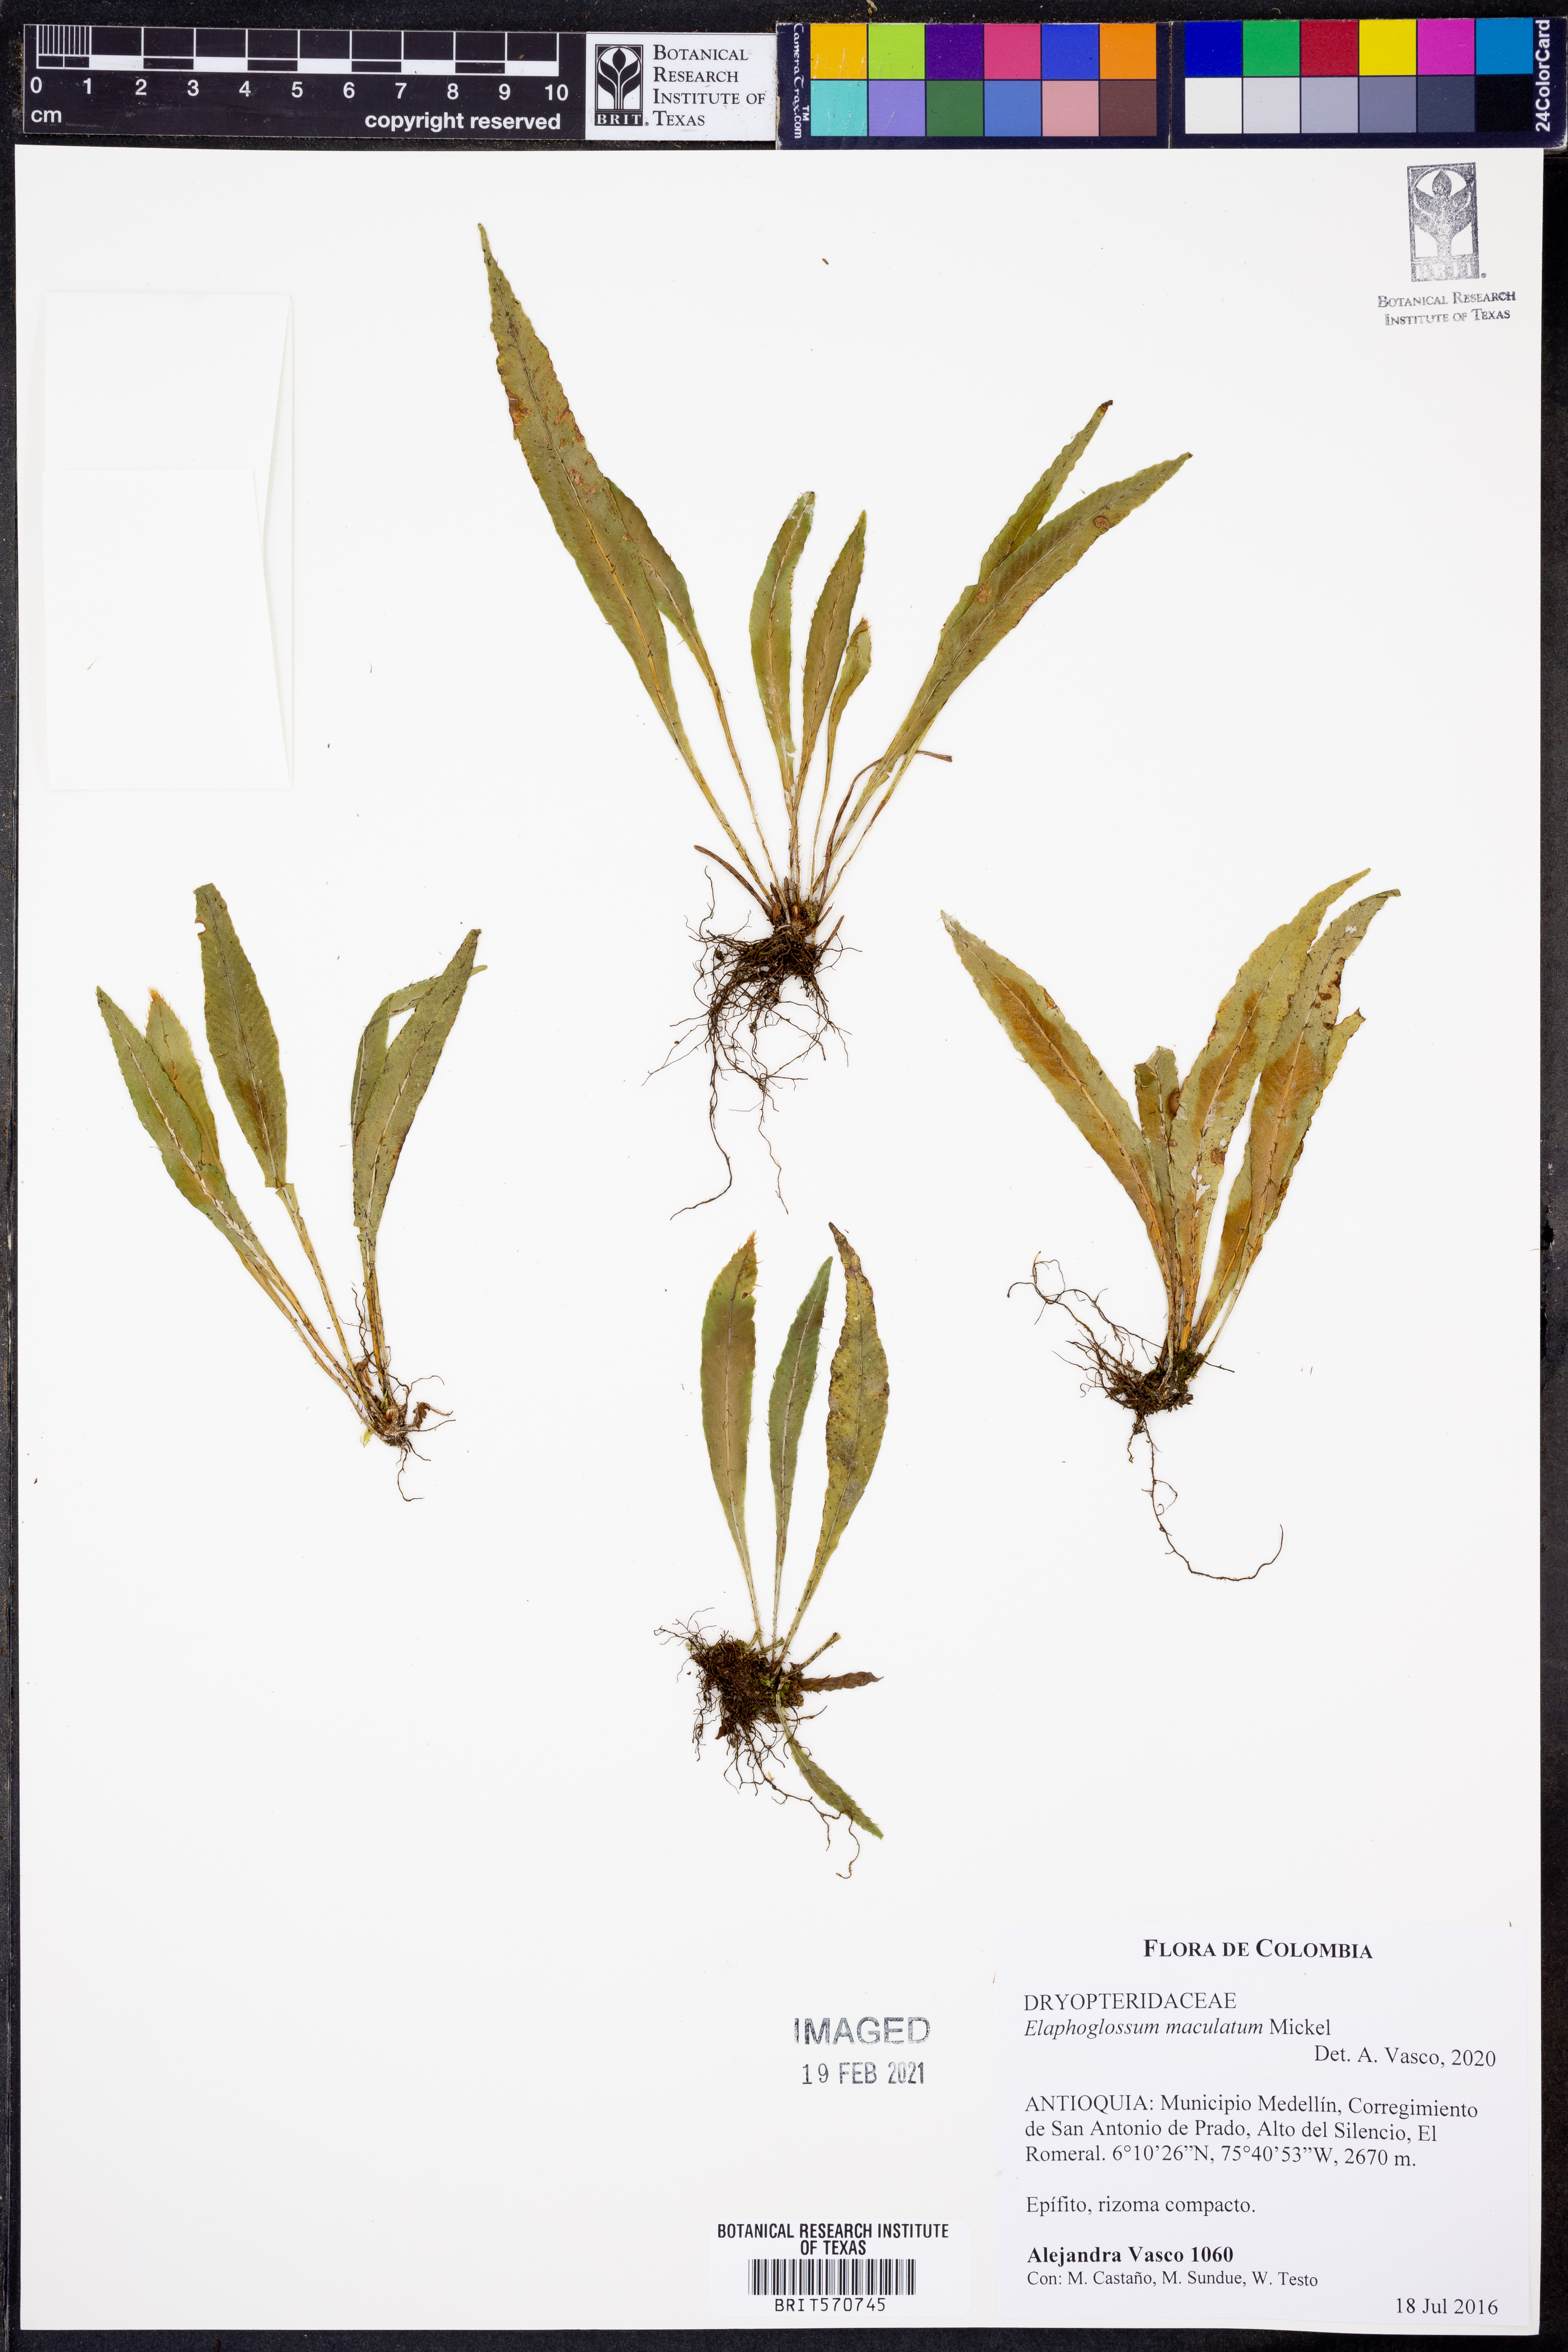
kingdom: Plantae
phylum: Tracheophyta
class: Polypodiopsida
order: Polypodiales
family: Dryopteridaceae
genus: Elaphoglossum
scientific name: Elaphoglossum maculatum
